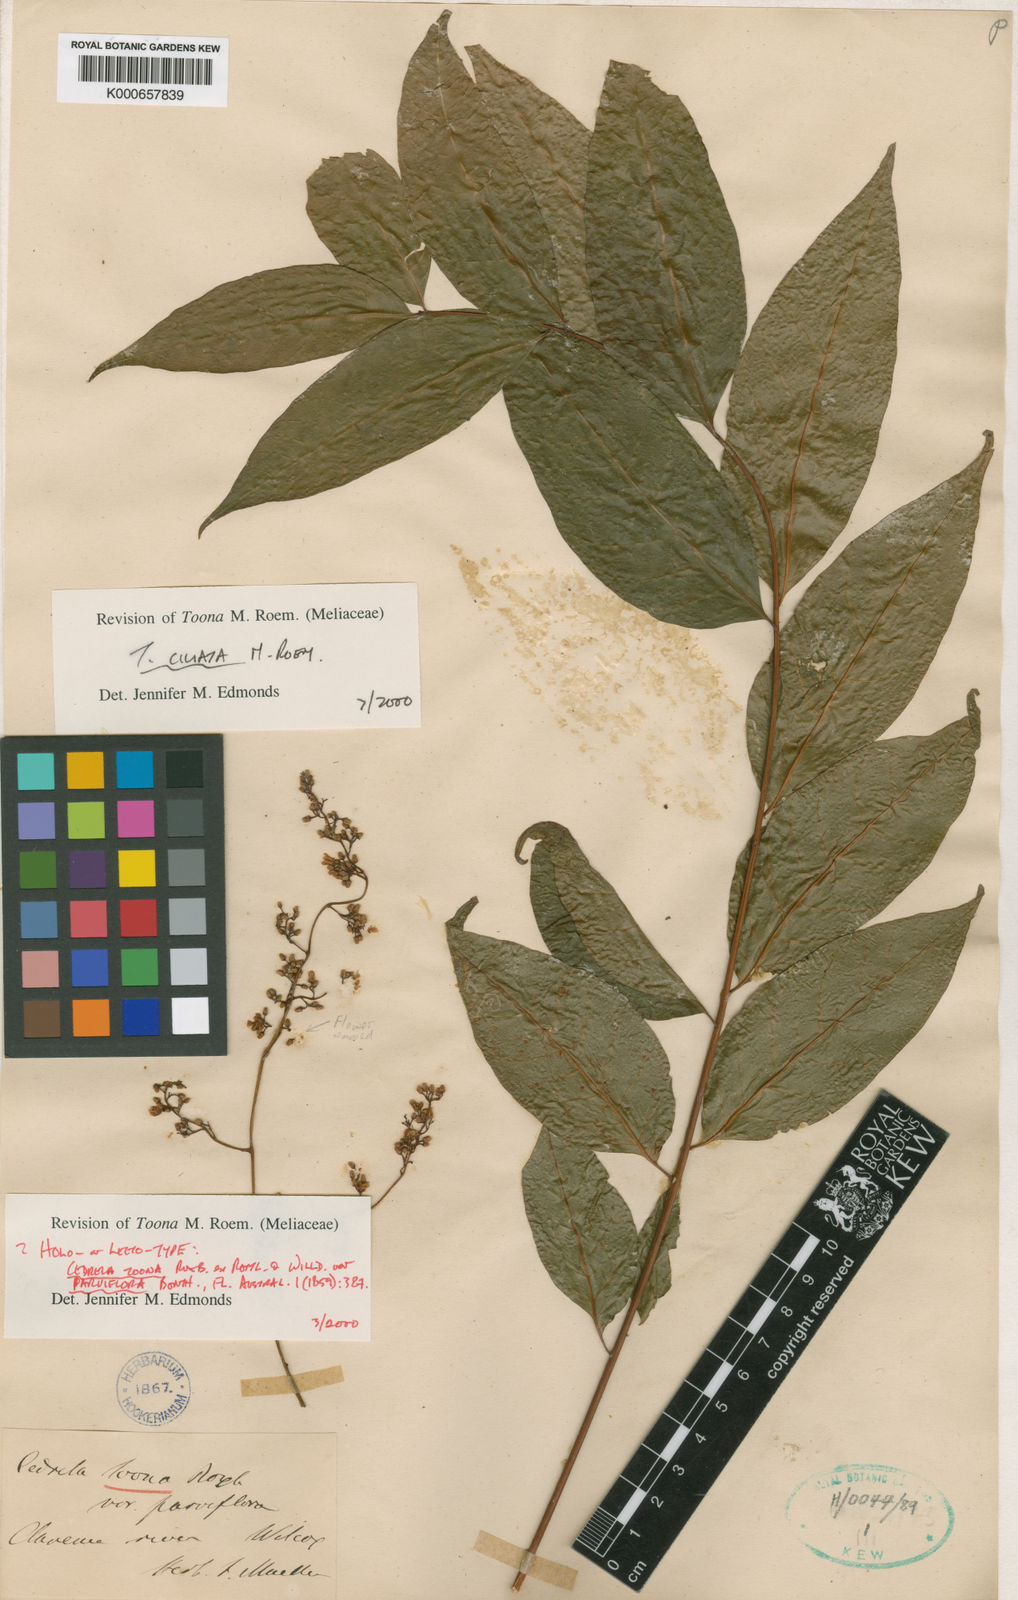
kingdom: Plantae
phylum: Tracheophyta
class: Magnoliopsida
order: Sapindales
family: Meliaceae
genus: Toona
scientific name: Toona ciliata
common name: Australian redcedar
